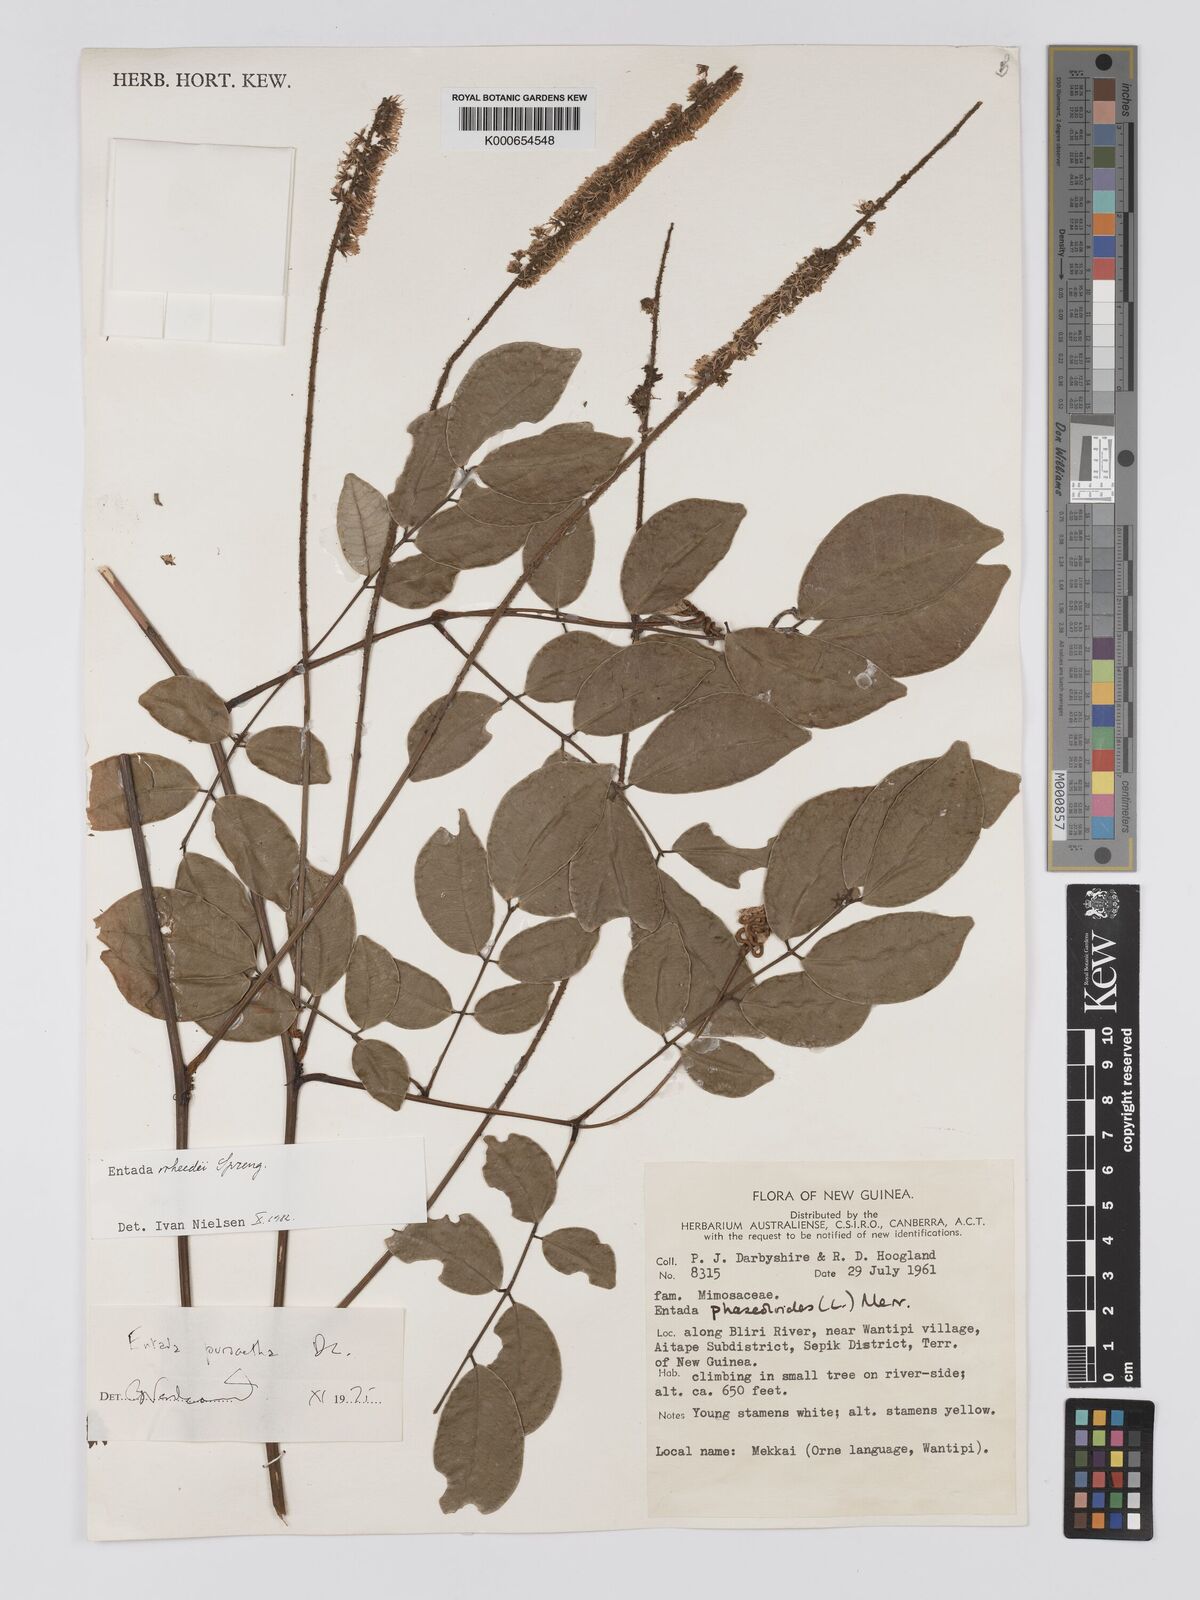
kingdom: Plantae
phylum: Tracheophyta
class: Magnoliopsida
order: Fabales
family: Fabaceae
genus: Entada
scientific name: Entada rheedei
